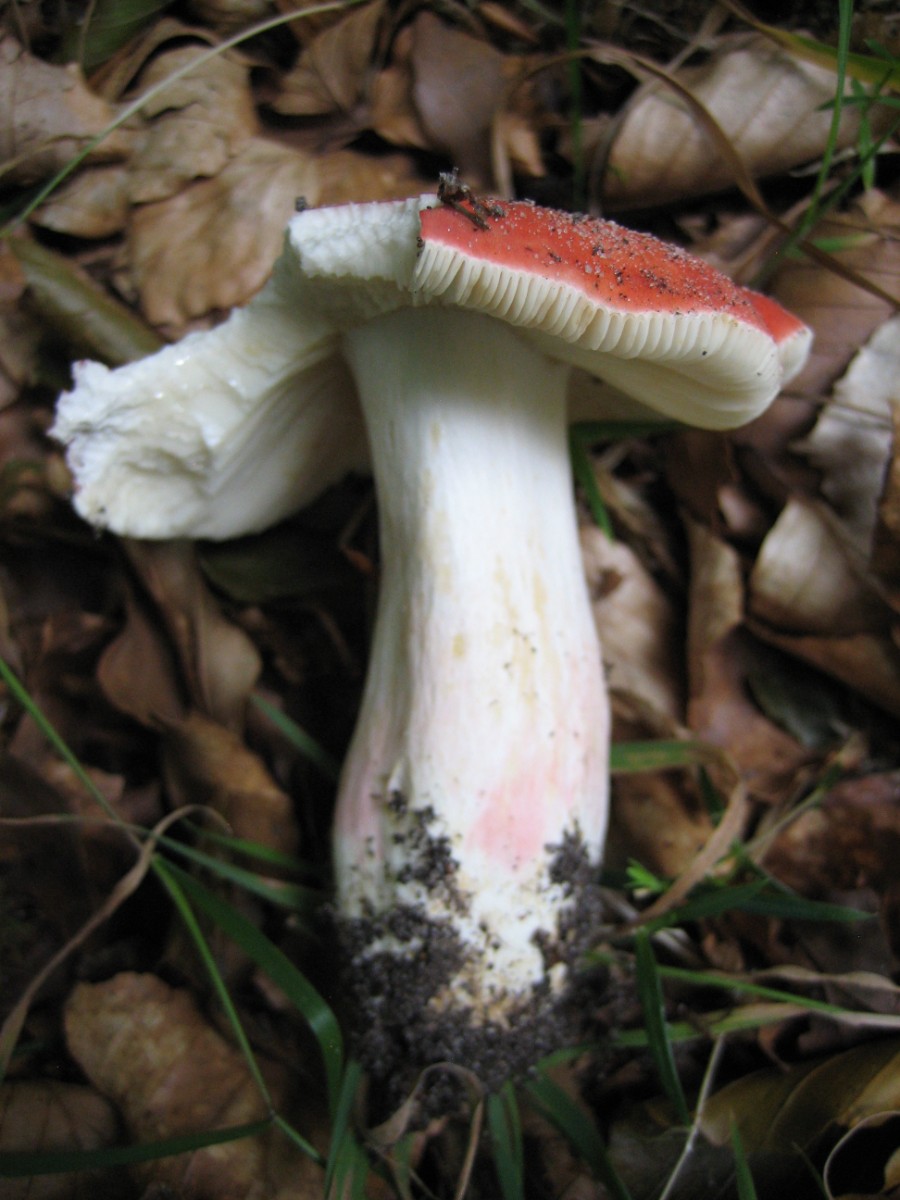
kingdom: Fungi
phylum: Basidiomycota
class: Agaricomycetes
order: Russulales
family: Russulaceae
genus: Russula
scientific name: Russula rosea
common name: fastkødet skørhat
